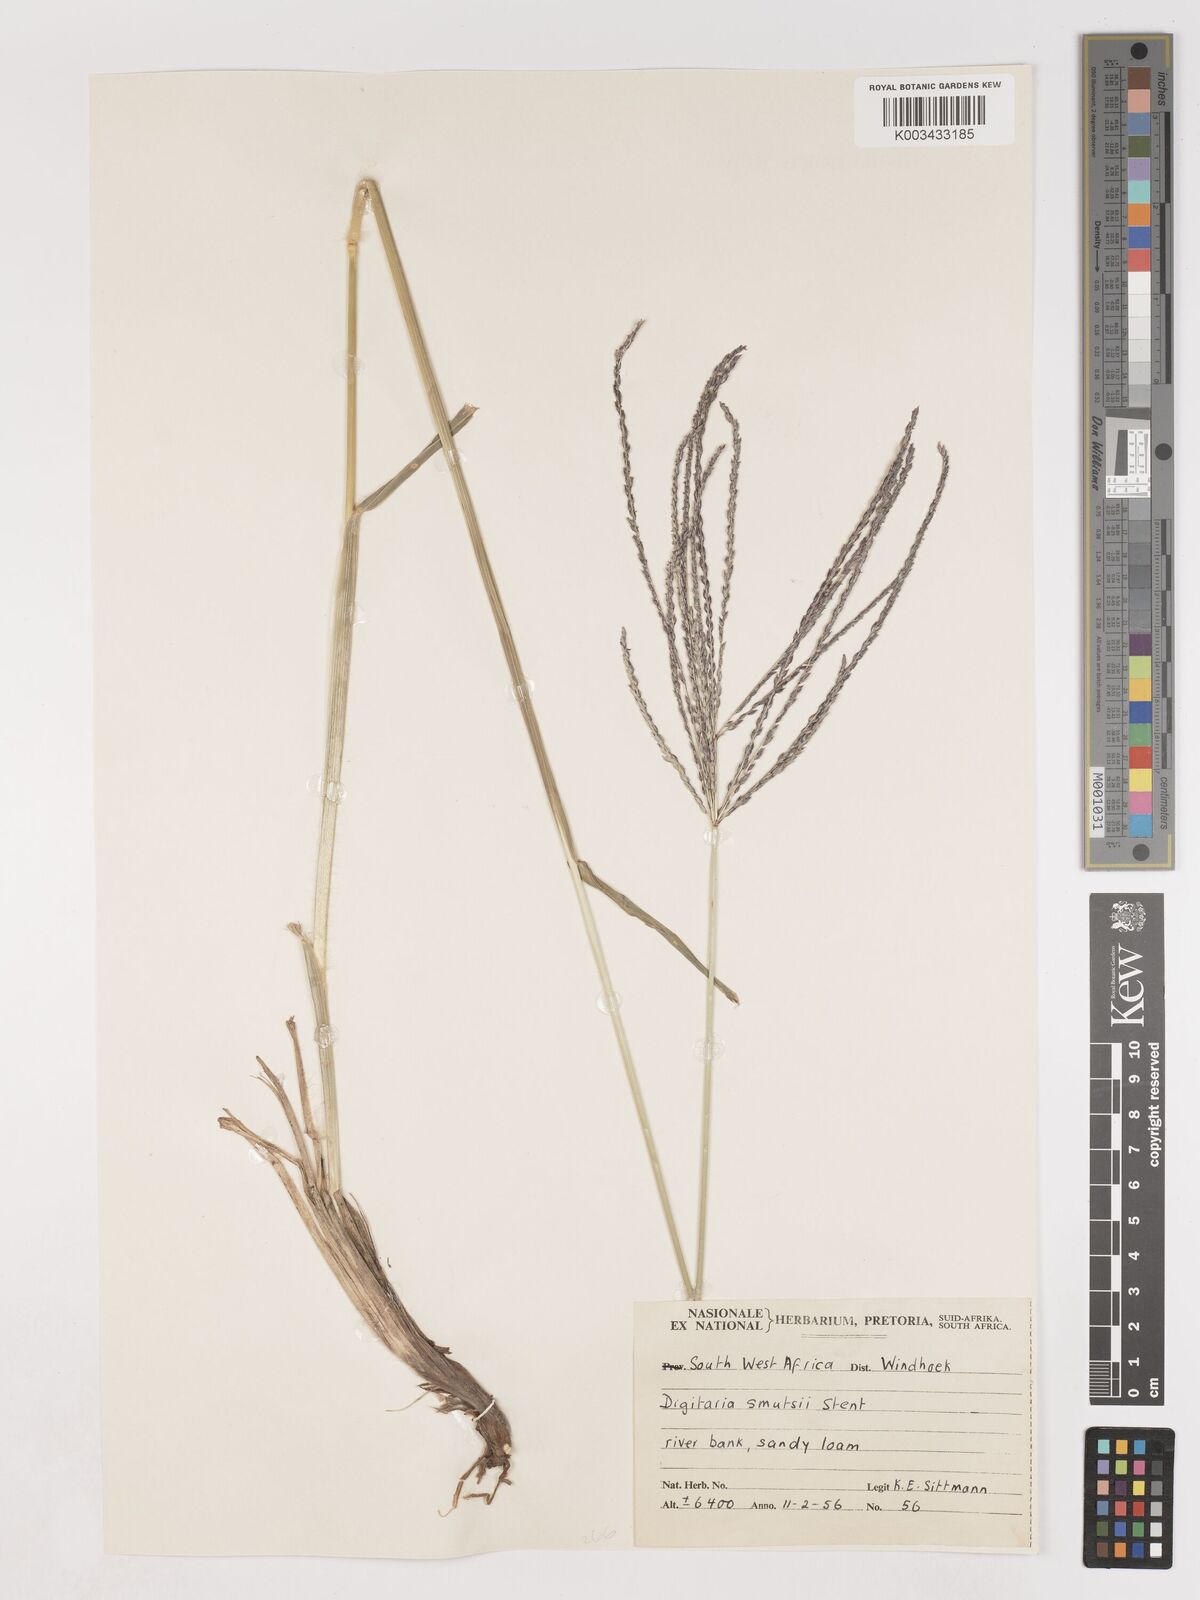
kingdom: Plantae
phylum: Tracheophyta
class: Liliopsida
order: Poales
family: Poaceae
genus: Digitaria
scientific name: Digitaria eriantha
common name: Digitgrass
